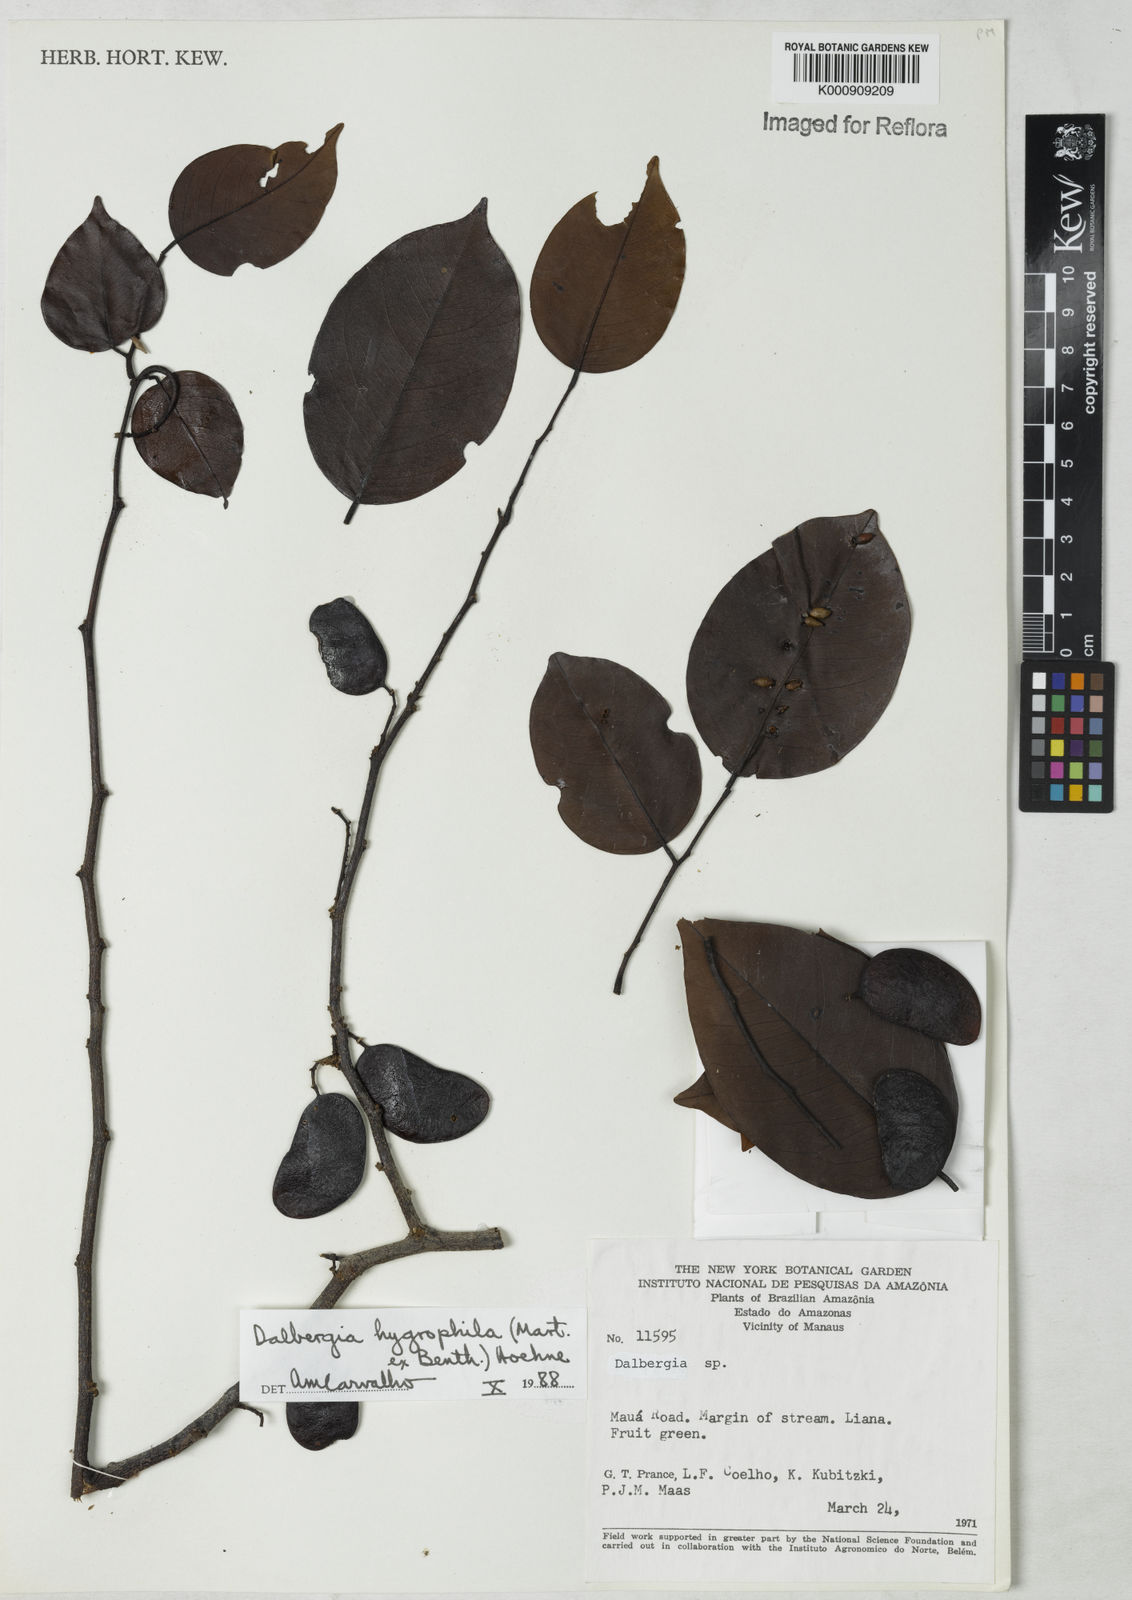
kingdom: Plantae
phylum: Tracheophyta
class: Magnoliopsida
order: Fabales
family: Fabaceae
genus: Dalbergia
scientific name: Dalbergia hygrophila
